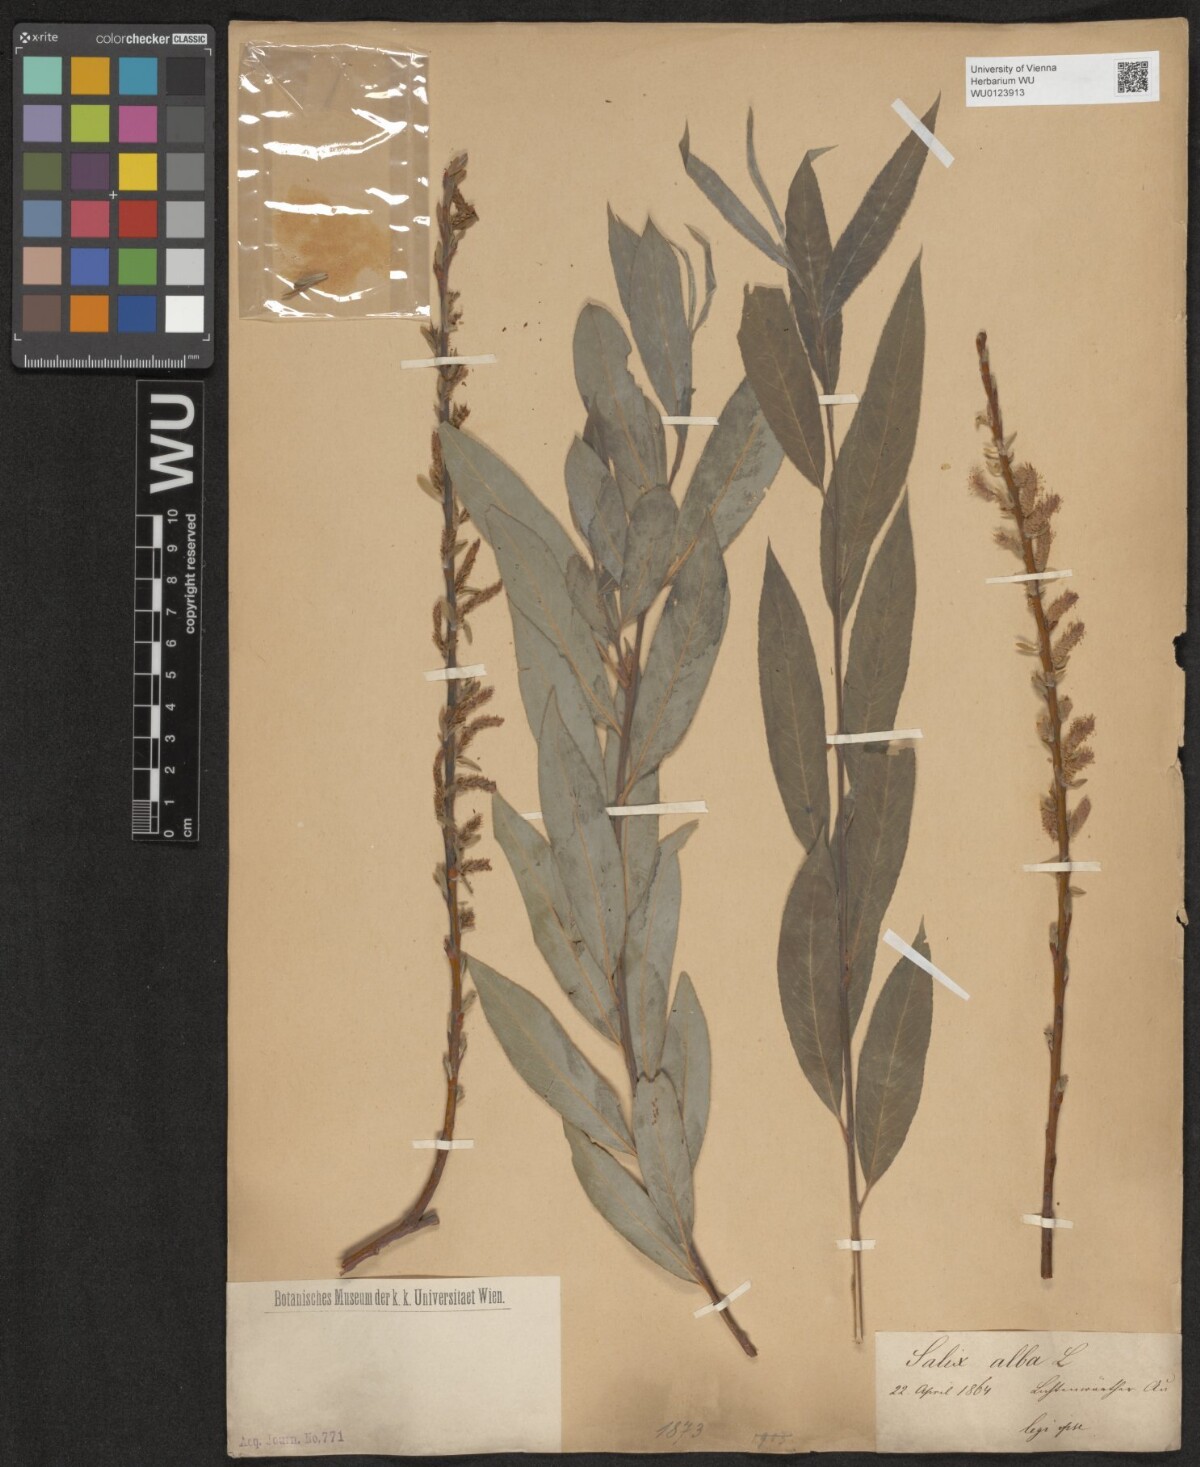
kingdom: Plantae
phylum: Tracheophyta
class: Magnoliopsida
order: Malpighiales
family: Salicaceae
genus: Salix
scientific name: Salix alba
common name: White willow
